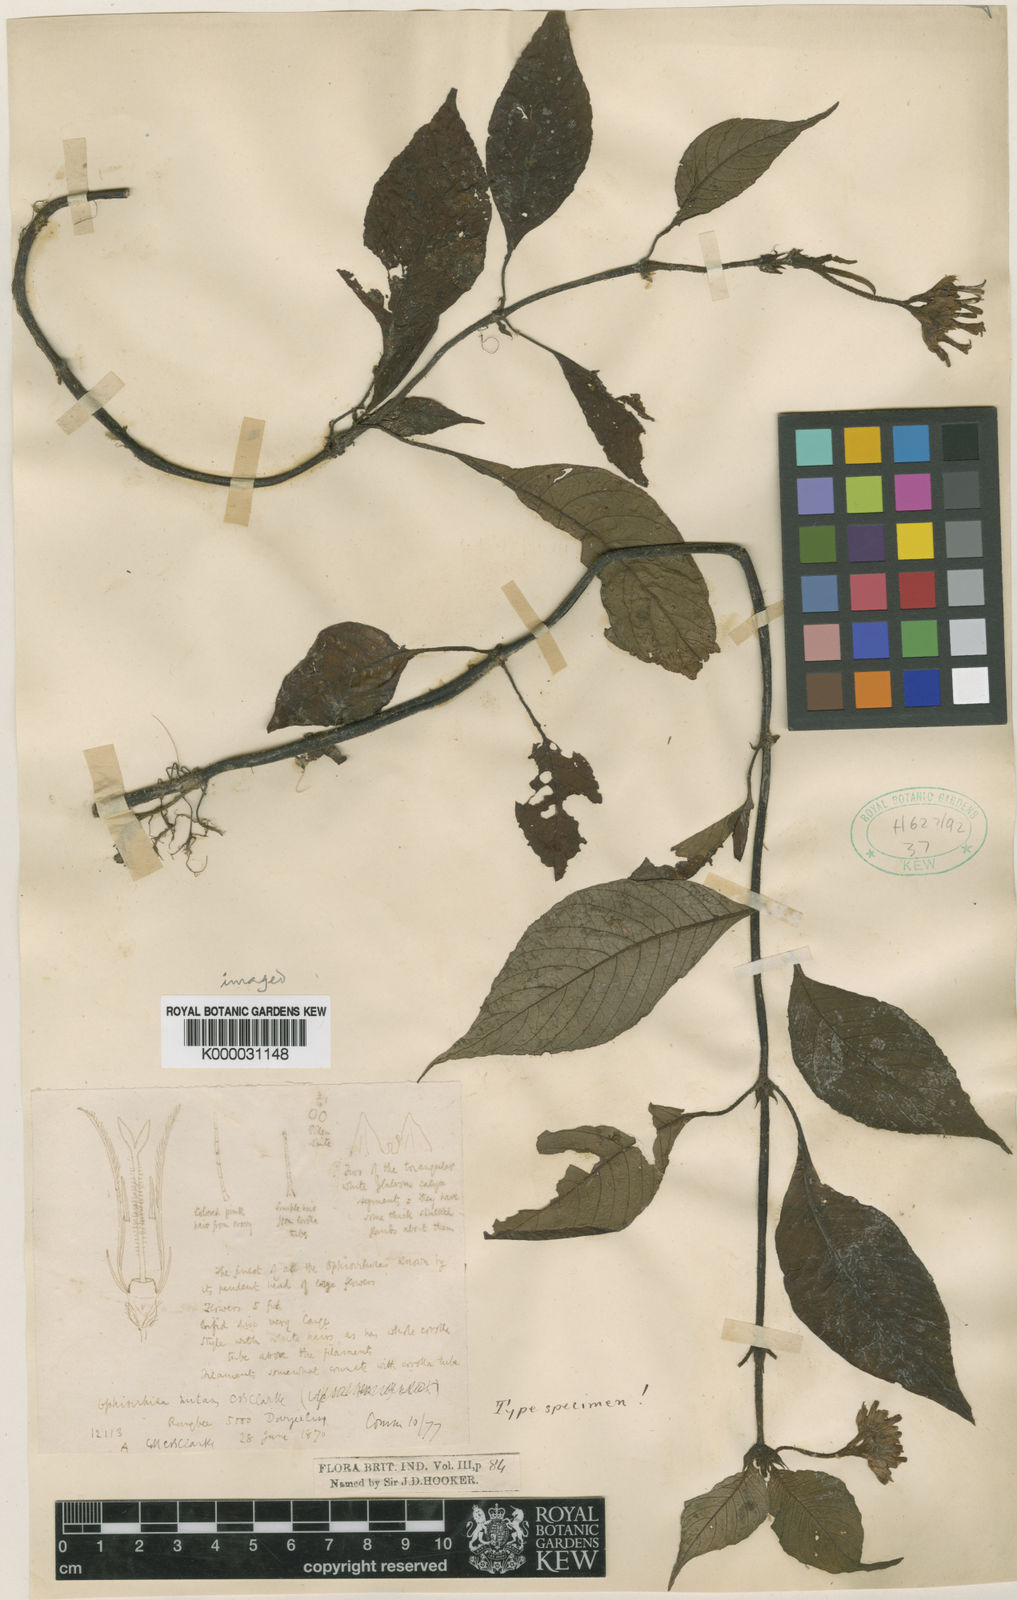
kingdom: Plantae
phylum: Tracheophyta
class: Magnoliopsida
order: Gentianales
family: Rubiaceae
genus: Ophiorrhiza
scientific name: Ophiorrhiza nutans
